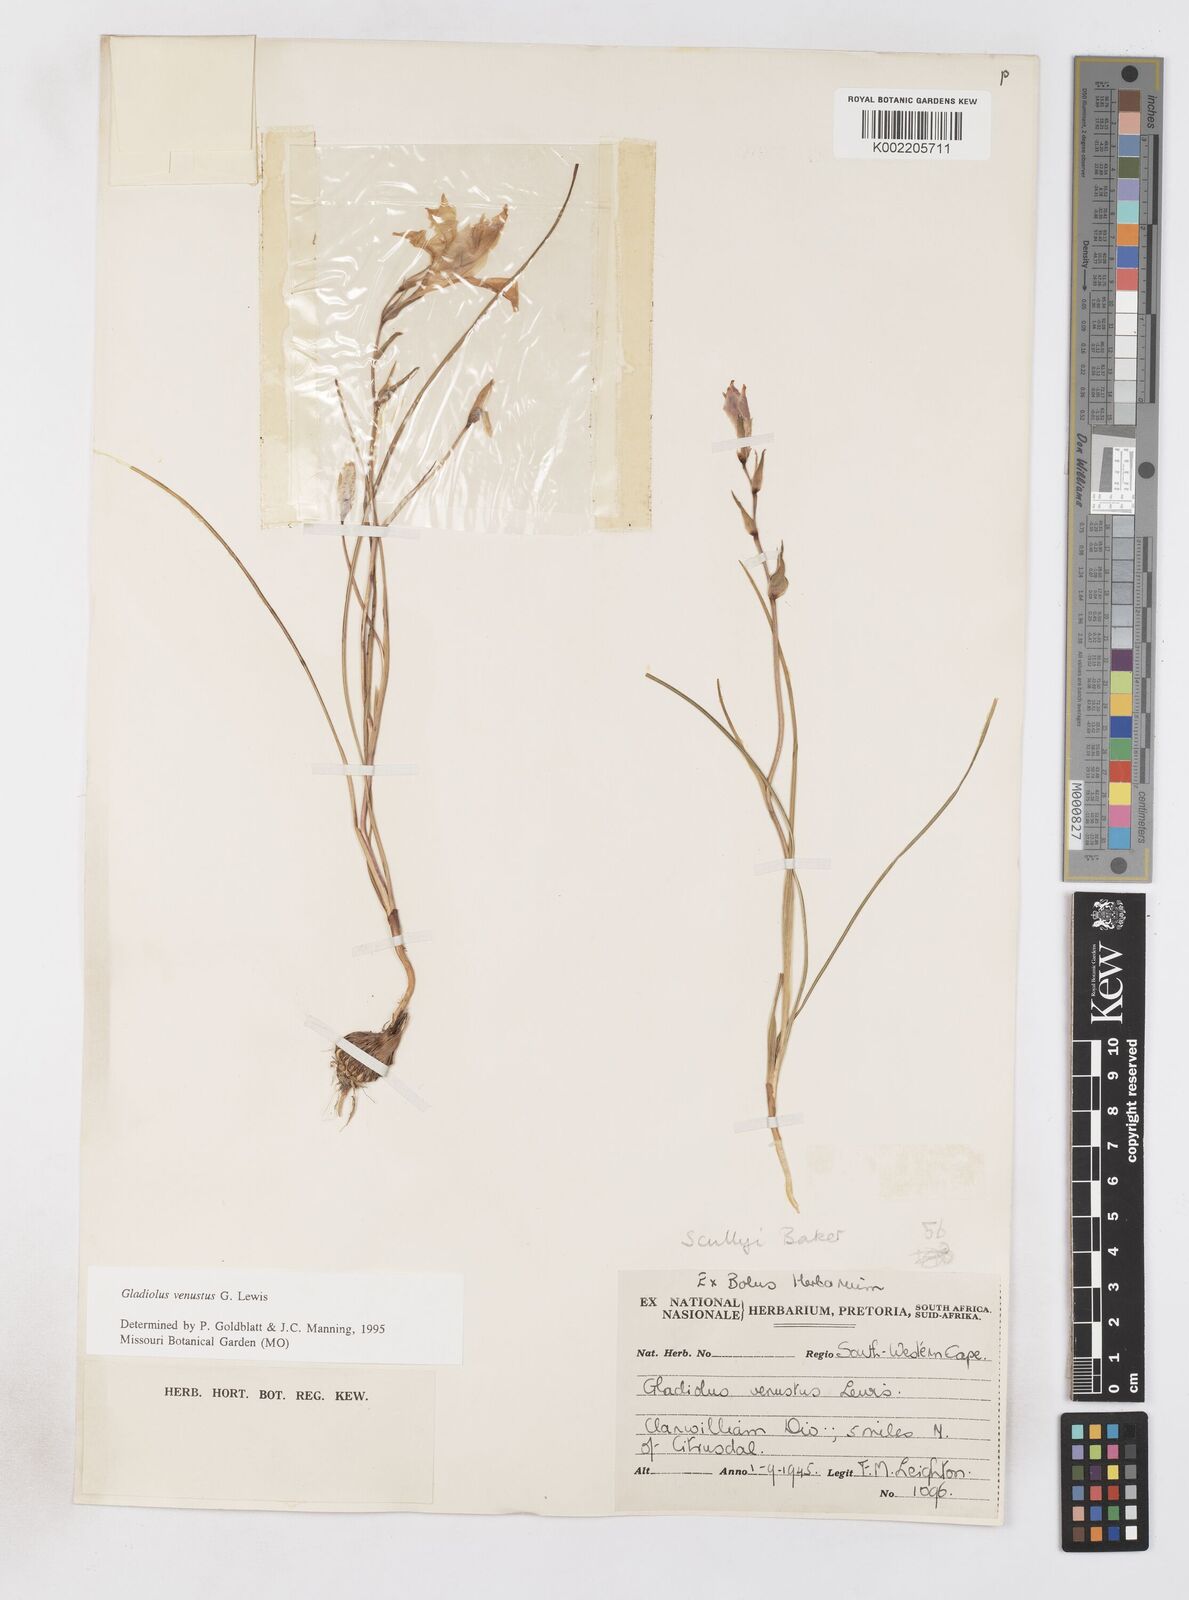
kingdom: Plantae
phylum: Tracheophyta
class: Liliopsida
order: Asparagales
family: Iridaceae
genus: Gladiolus
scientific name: Gladiolus venustus
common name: Purple kalkoentjie
